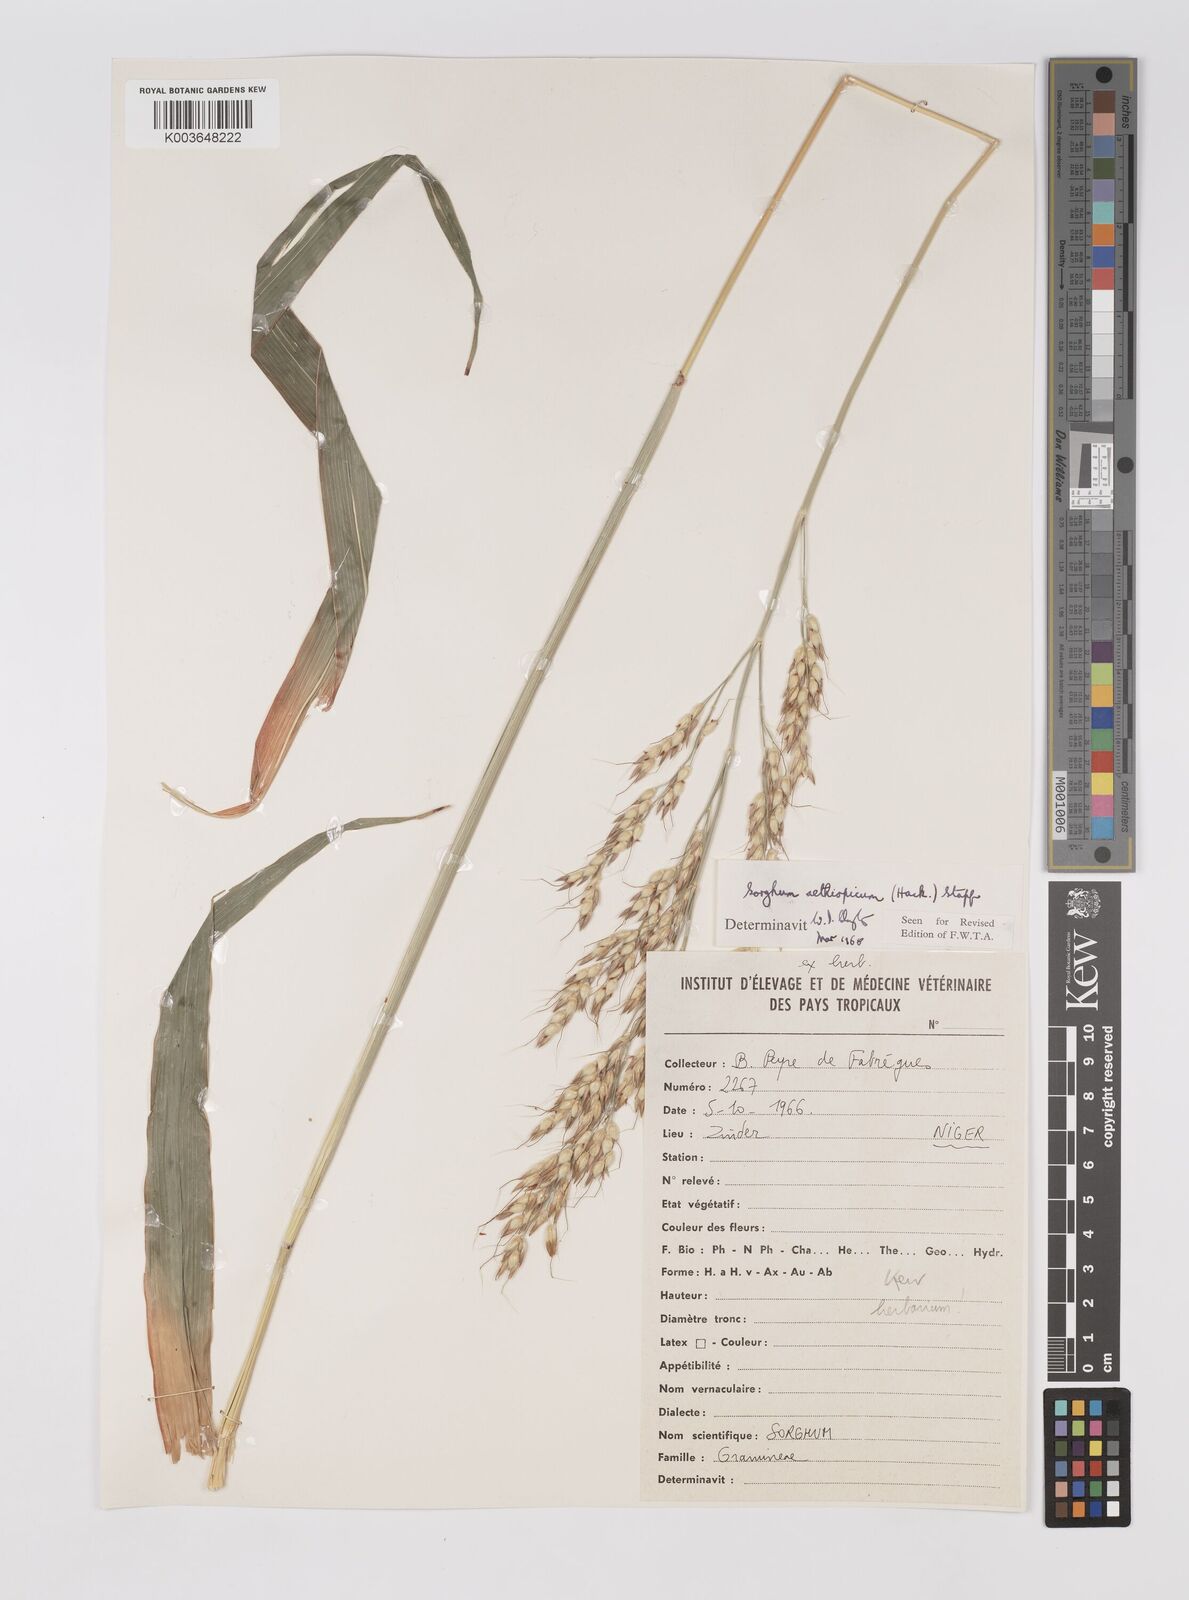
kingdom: Plantae
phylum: Tracheophyta
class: Liliopsida
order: Poales
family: Poaceae
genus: Sorghum
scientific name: Sorghum arundinaceum
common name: Sorghum
